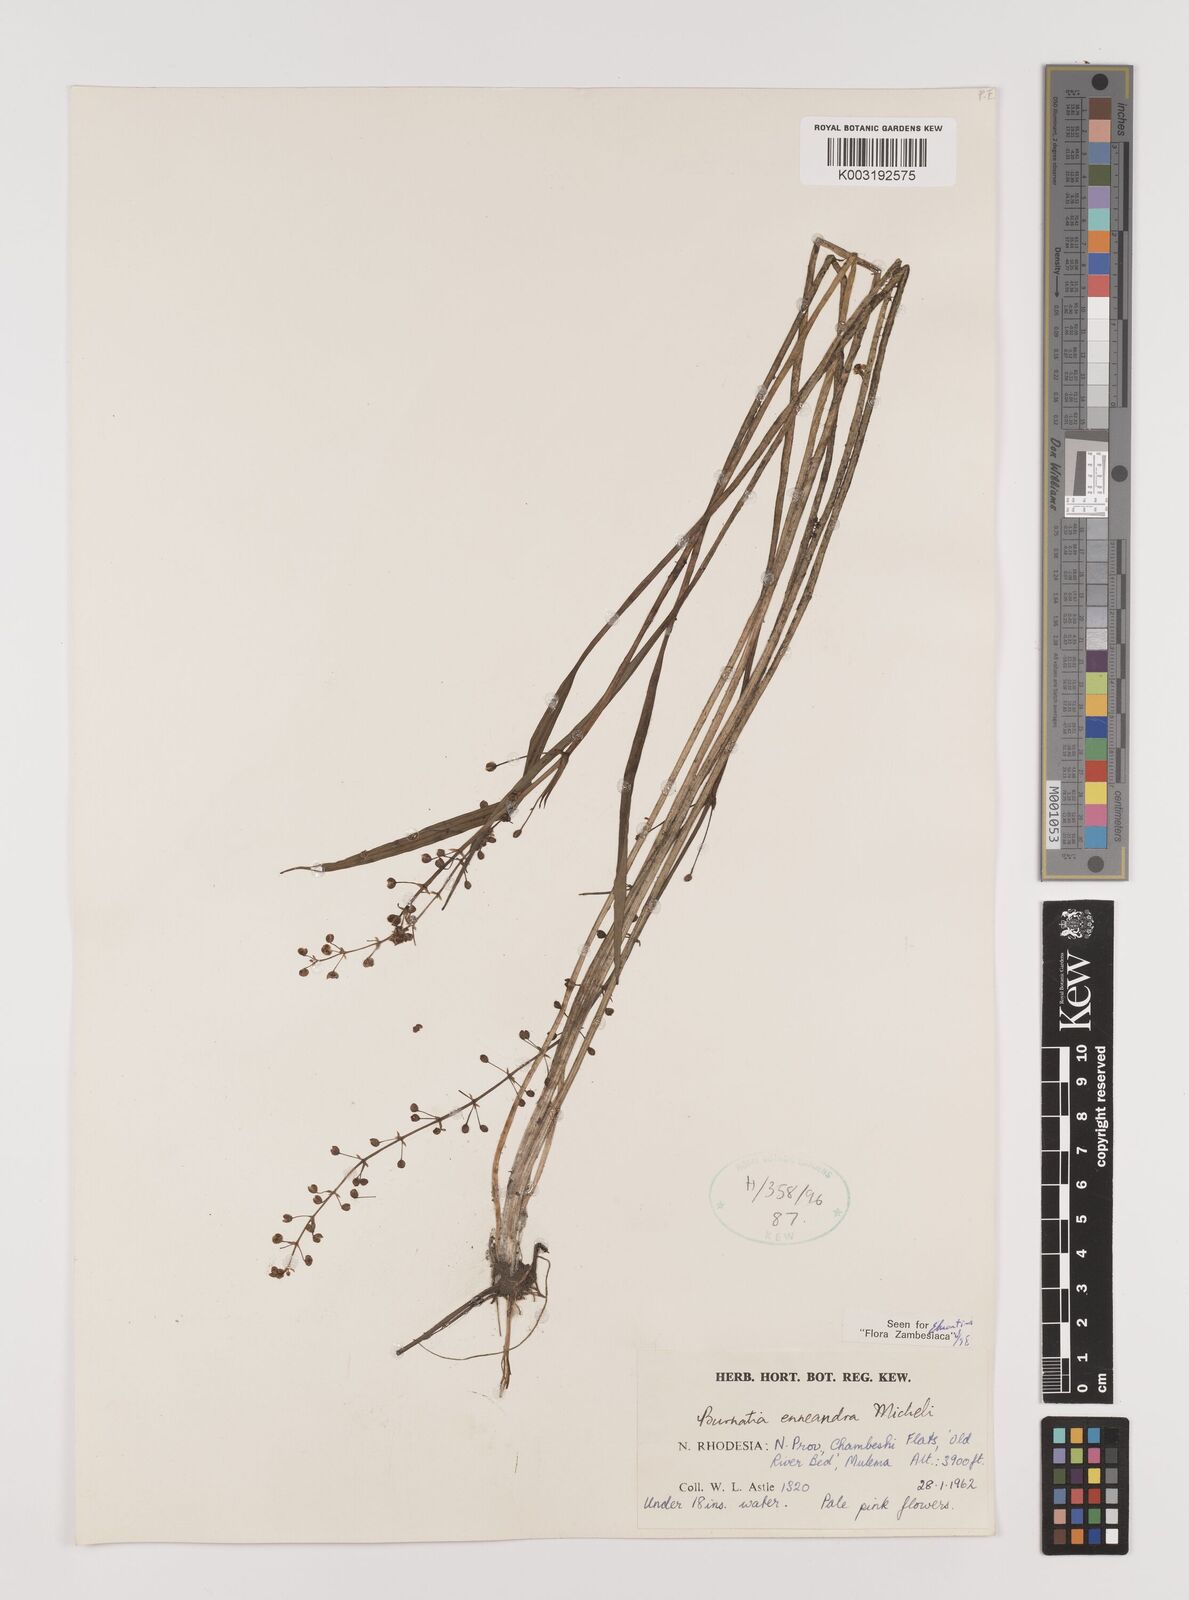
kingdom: Plantae
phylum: Tracheophyta
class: Liliopsida
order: Alismatales
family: Alismataceae
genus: Burnatia
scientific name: Burnatia enneandra
